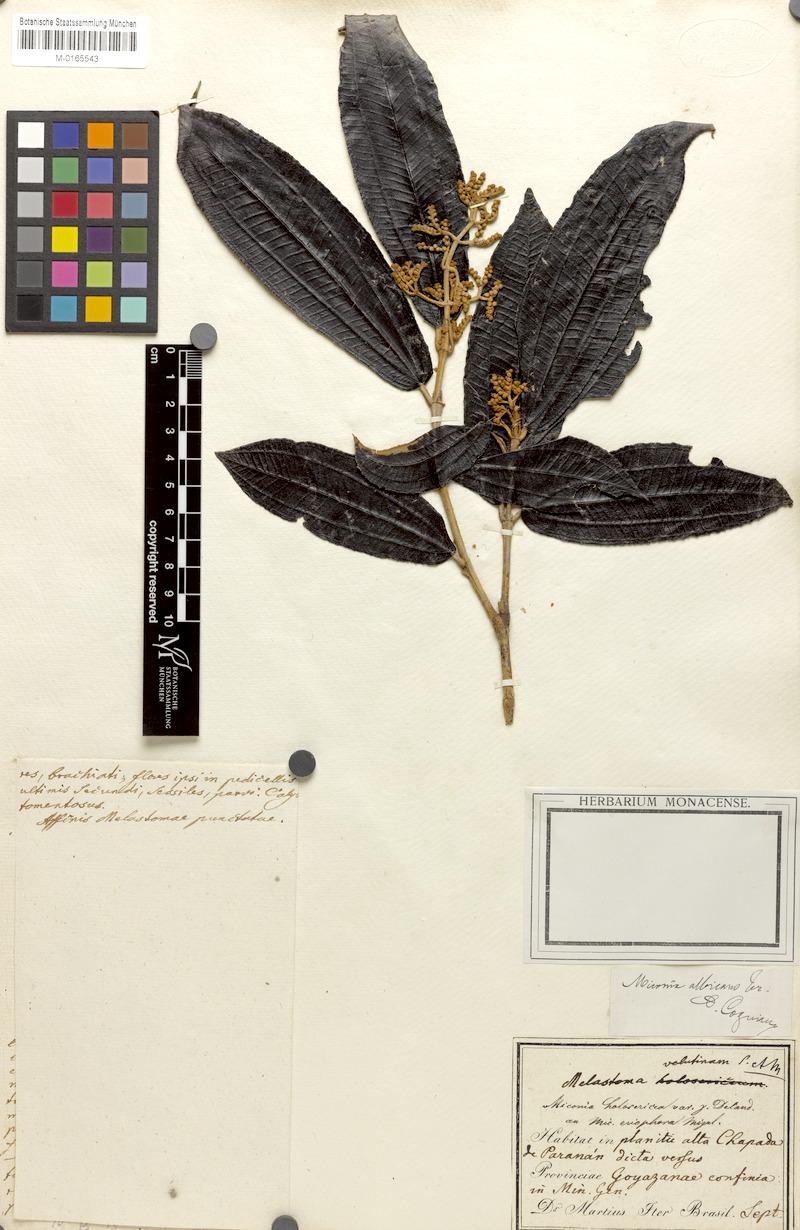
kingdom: Plantae
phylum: Tracheophyta
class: Magnoliopsida
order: Myrtales
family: Melastomataceae
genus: Miconia
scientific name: Miconia albicans
